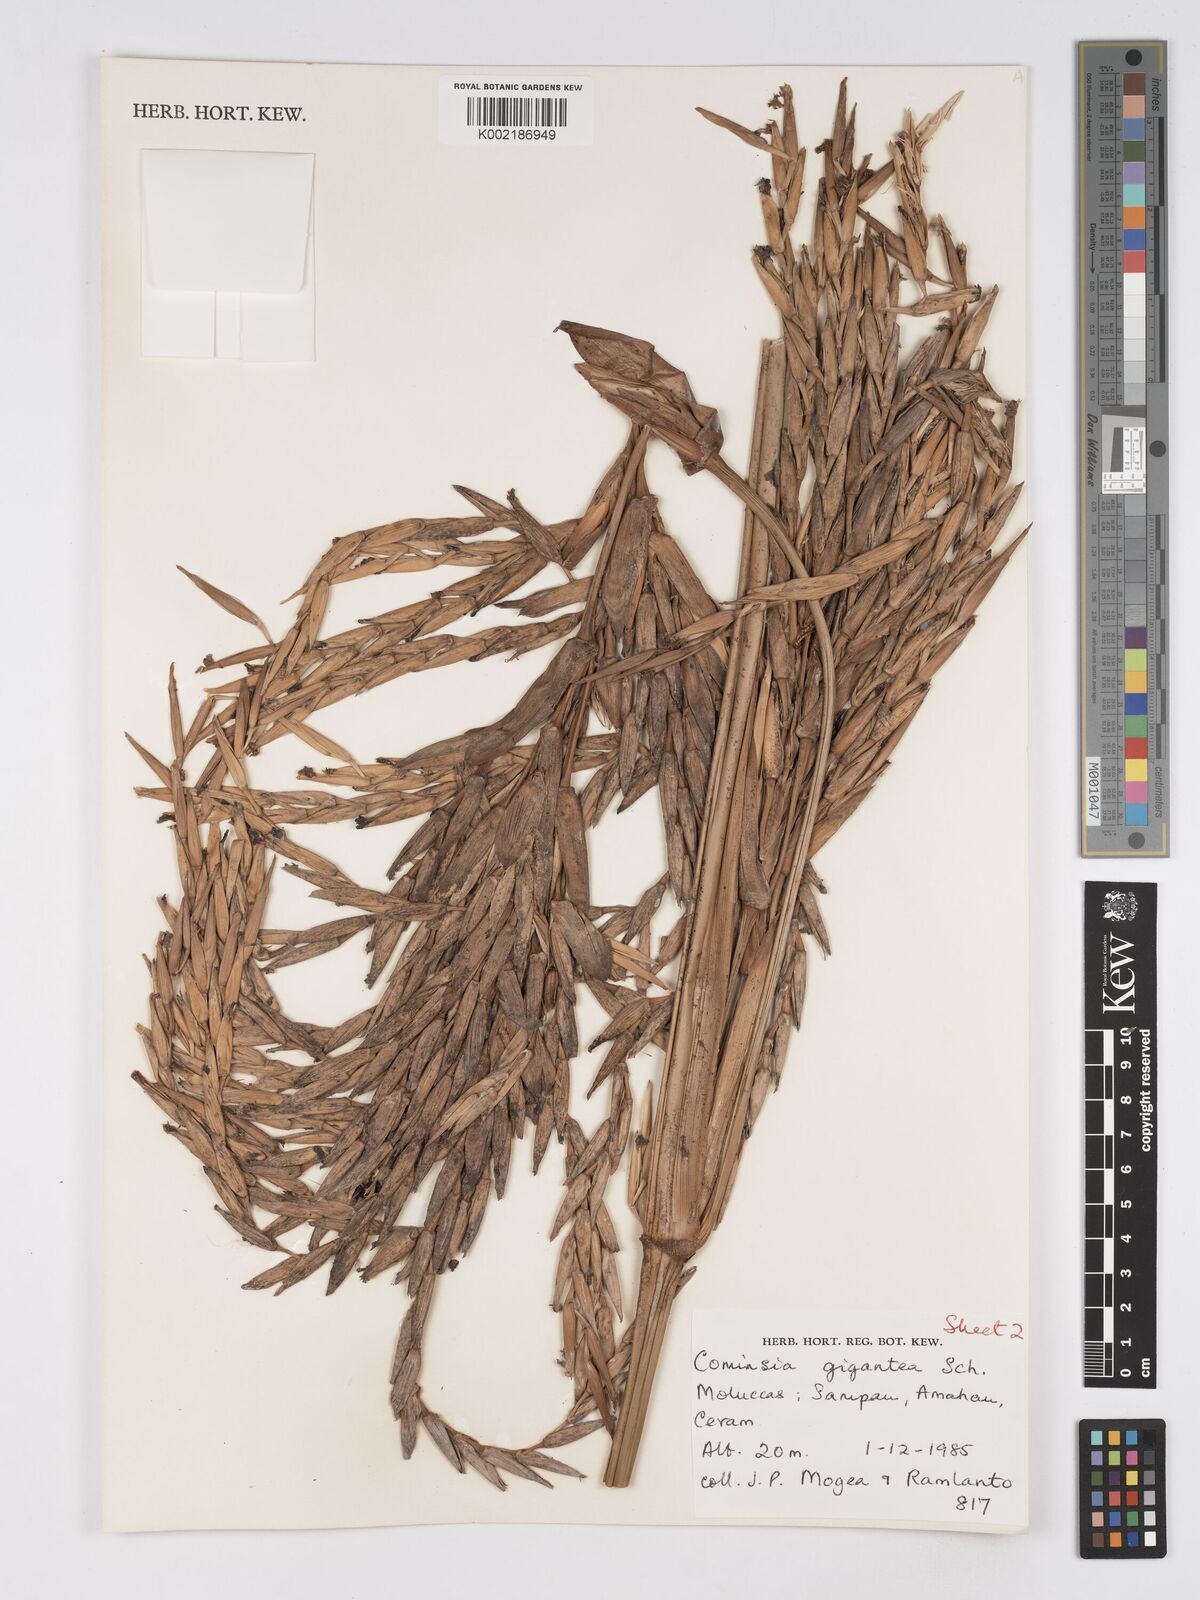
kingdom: Plantae
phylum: Tracheophyta
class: Liliopsida
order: Zingiberales
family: Marantaceae
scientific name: Marantaceae
